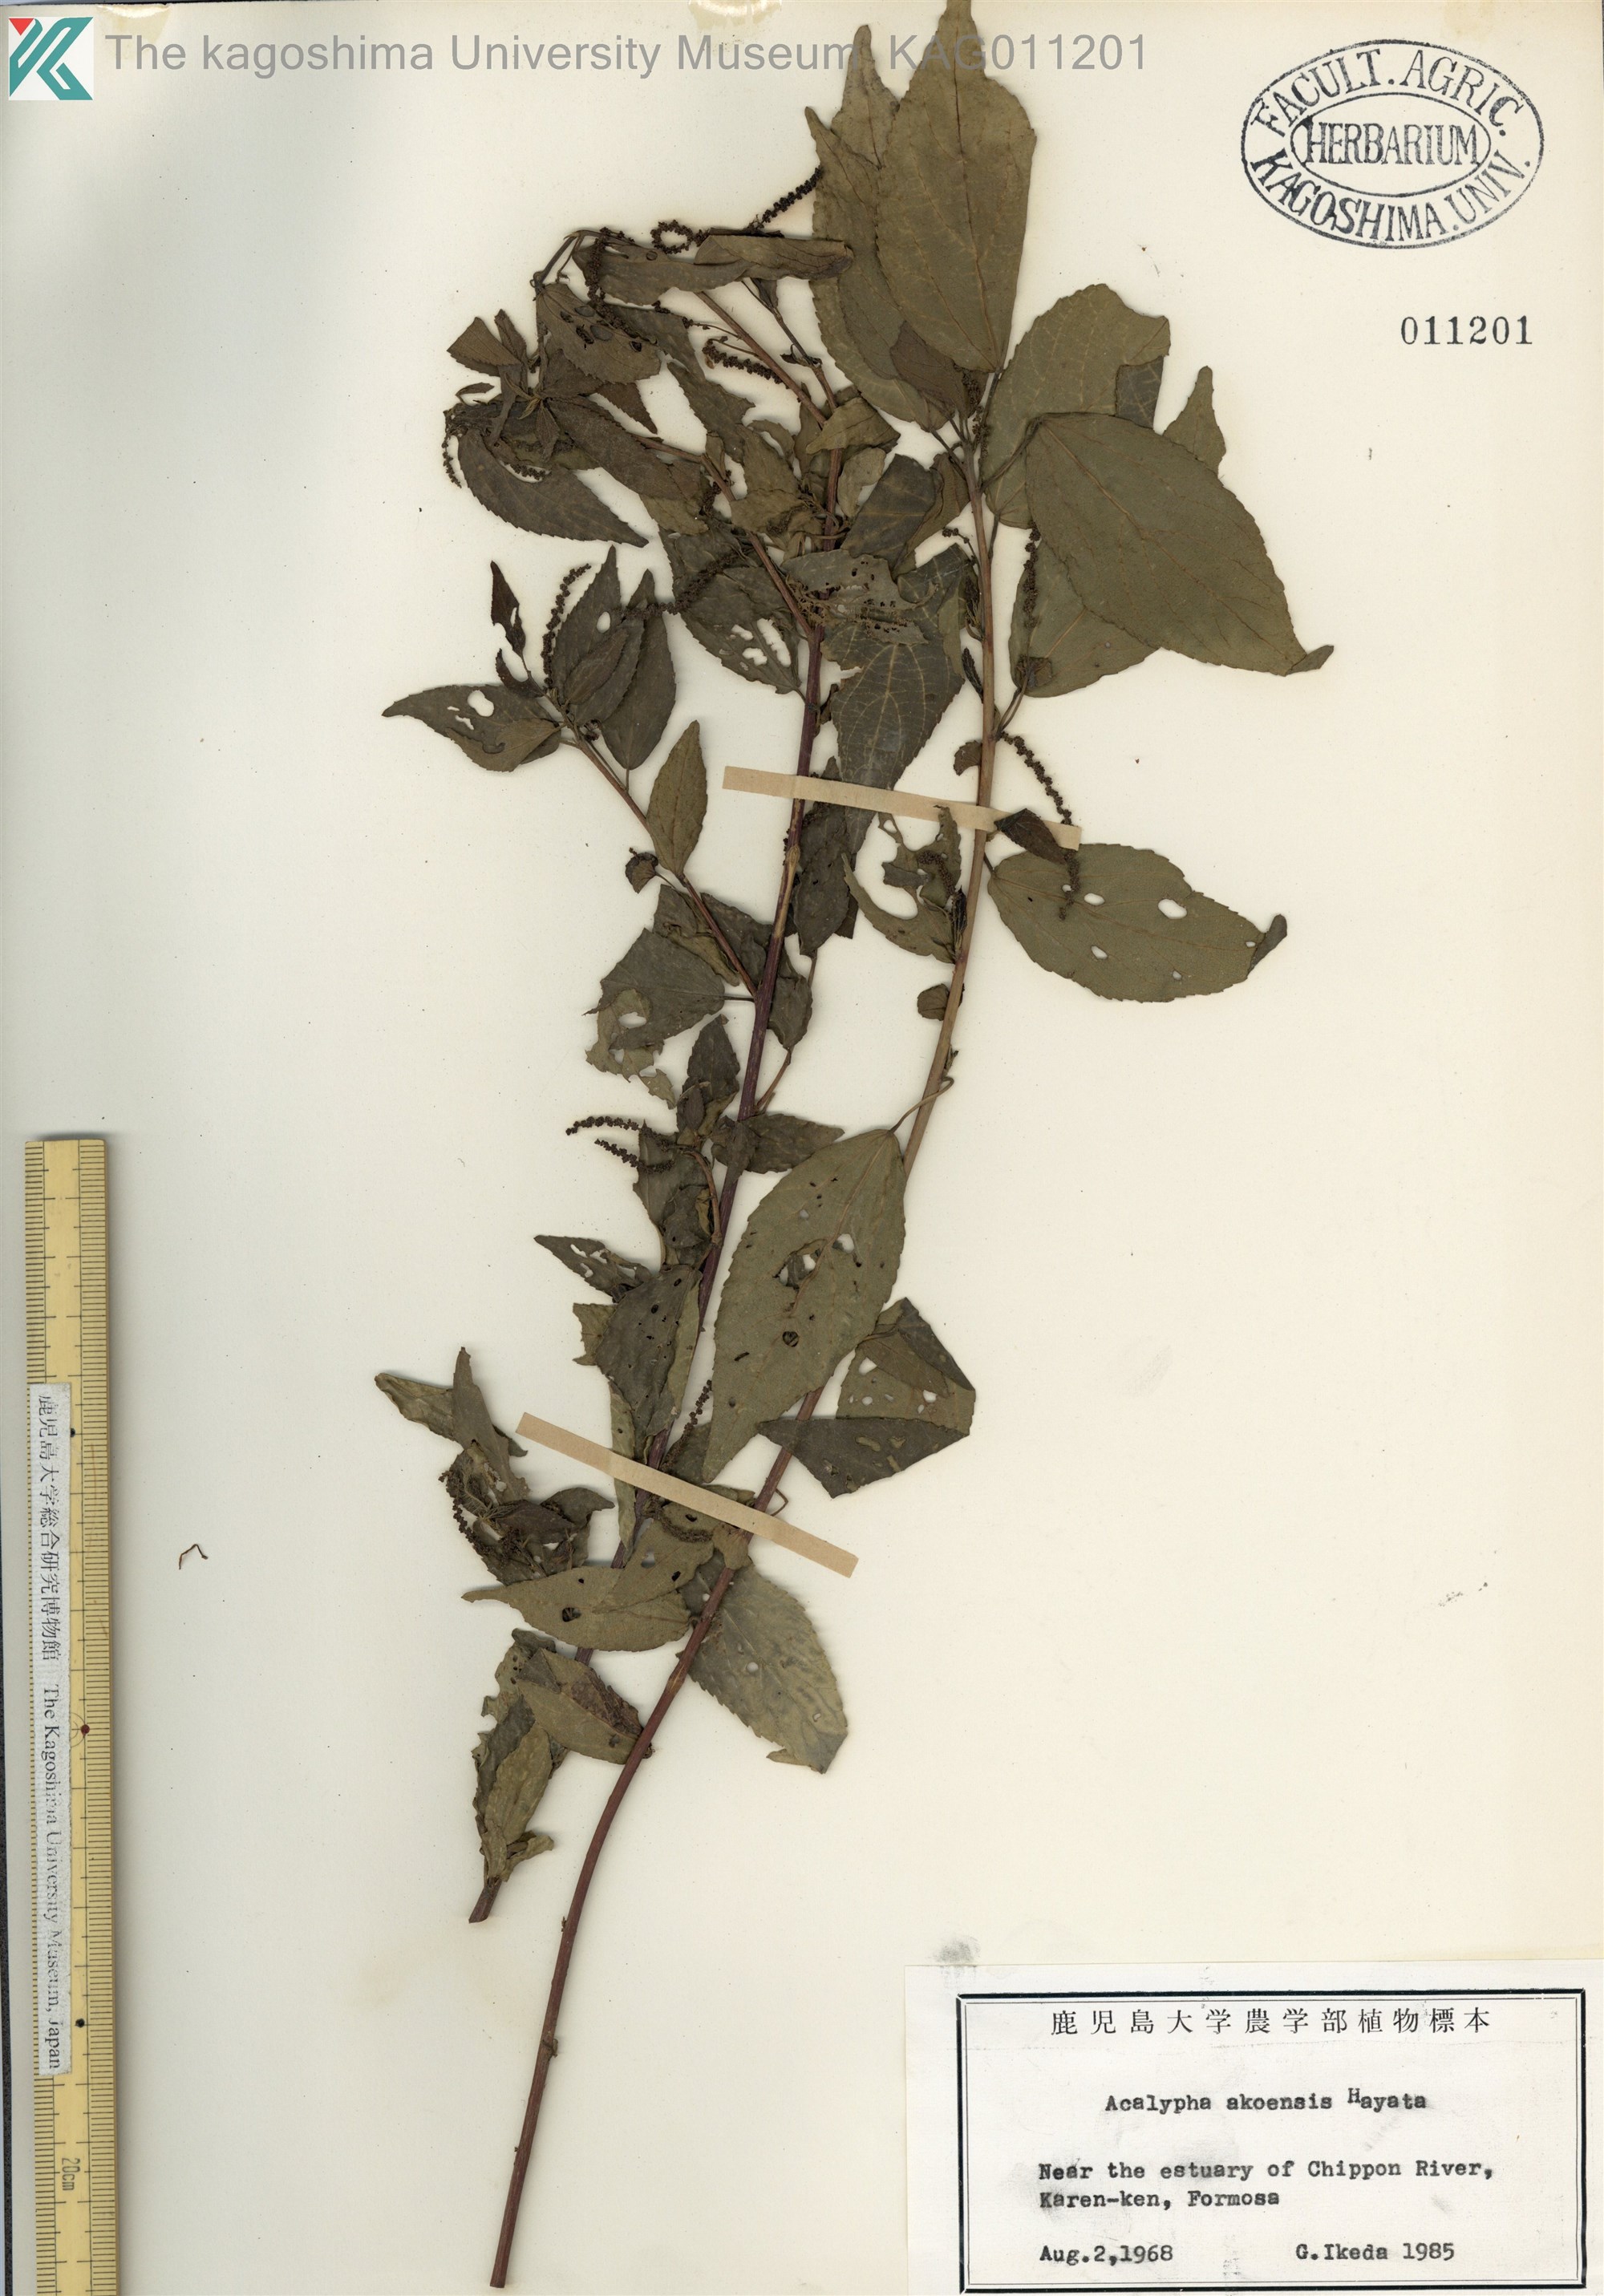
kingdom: Plantae
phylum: Tracheophyta
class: Magnoliopsida
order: Malpighiales
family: Euphorbiaceae
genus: Acalypha
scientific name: Acalypha angatensis
